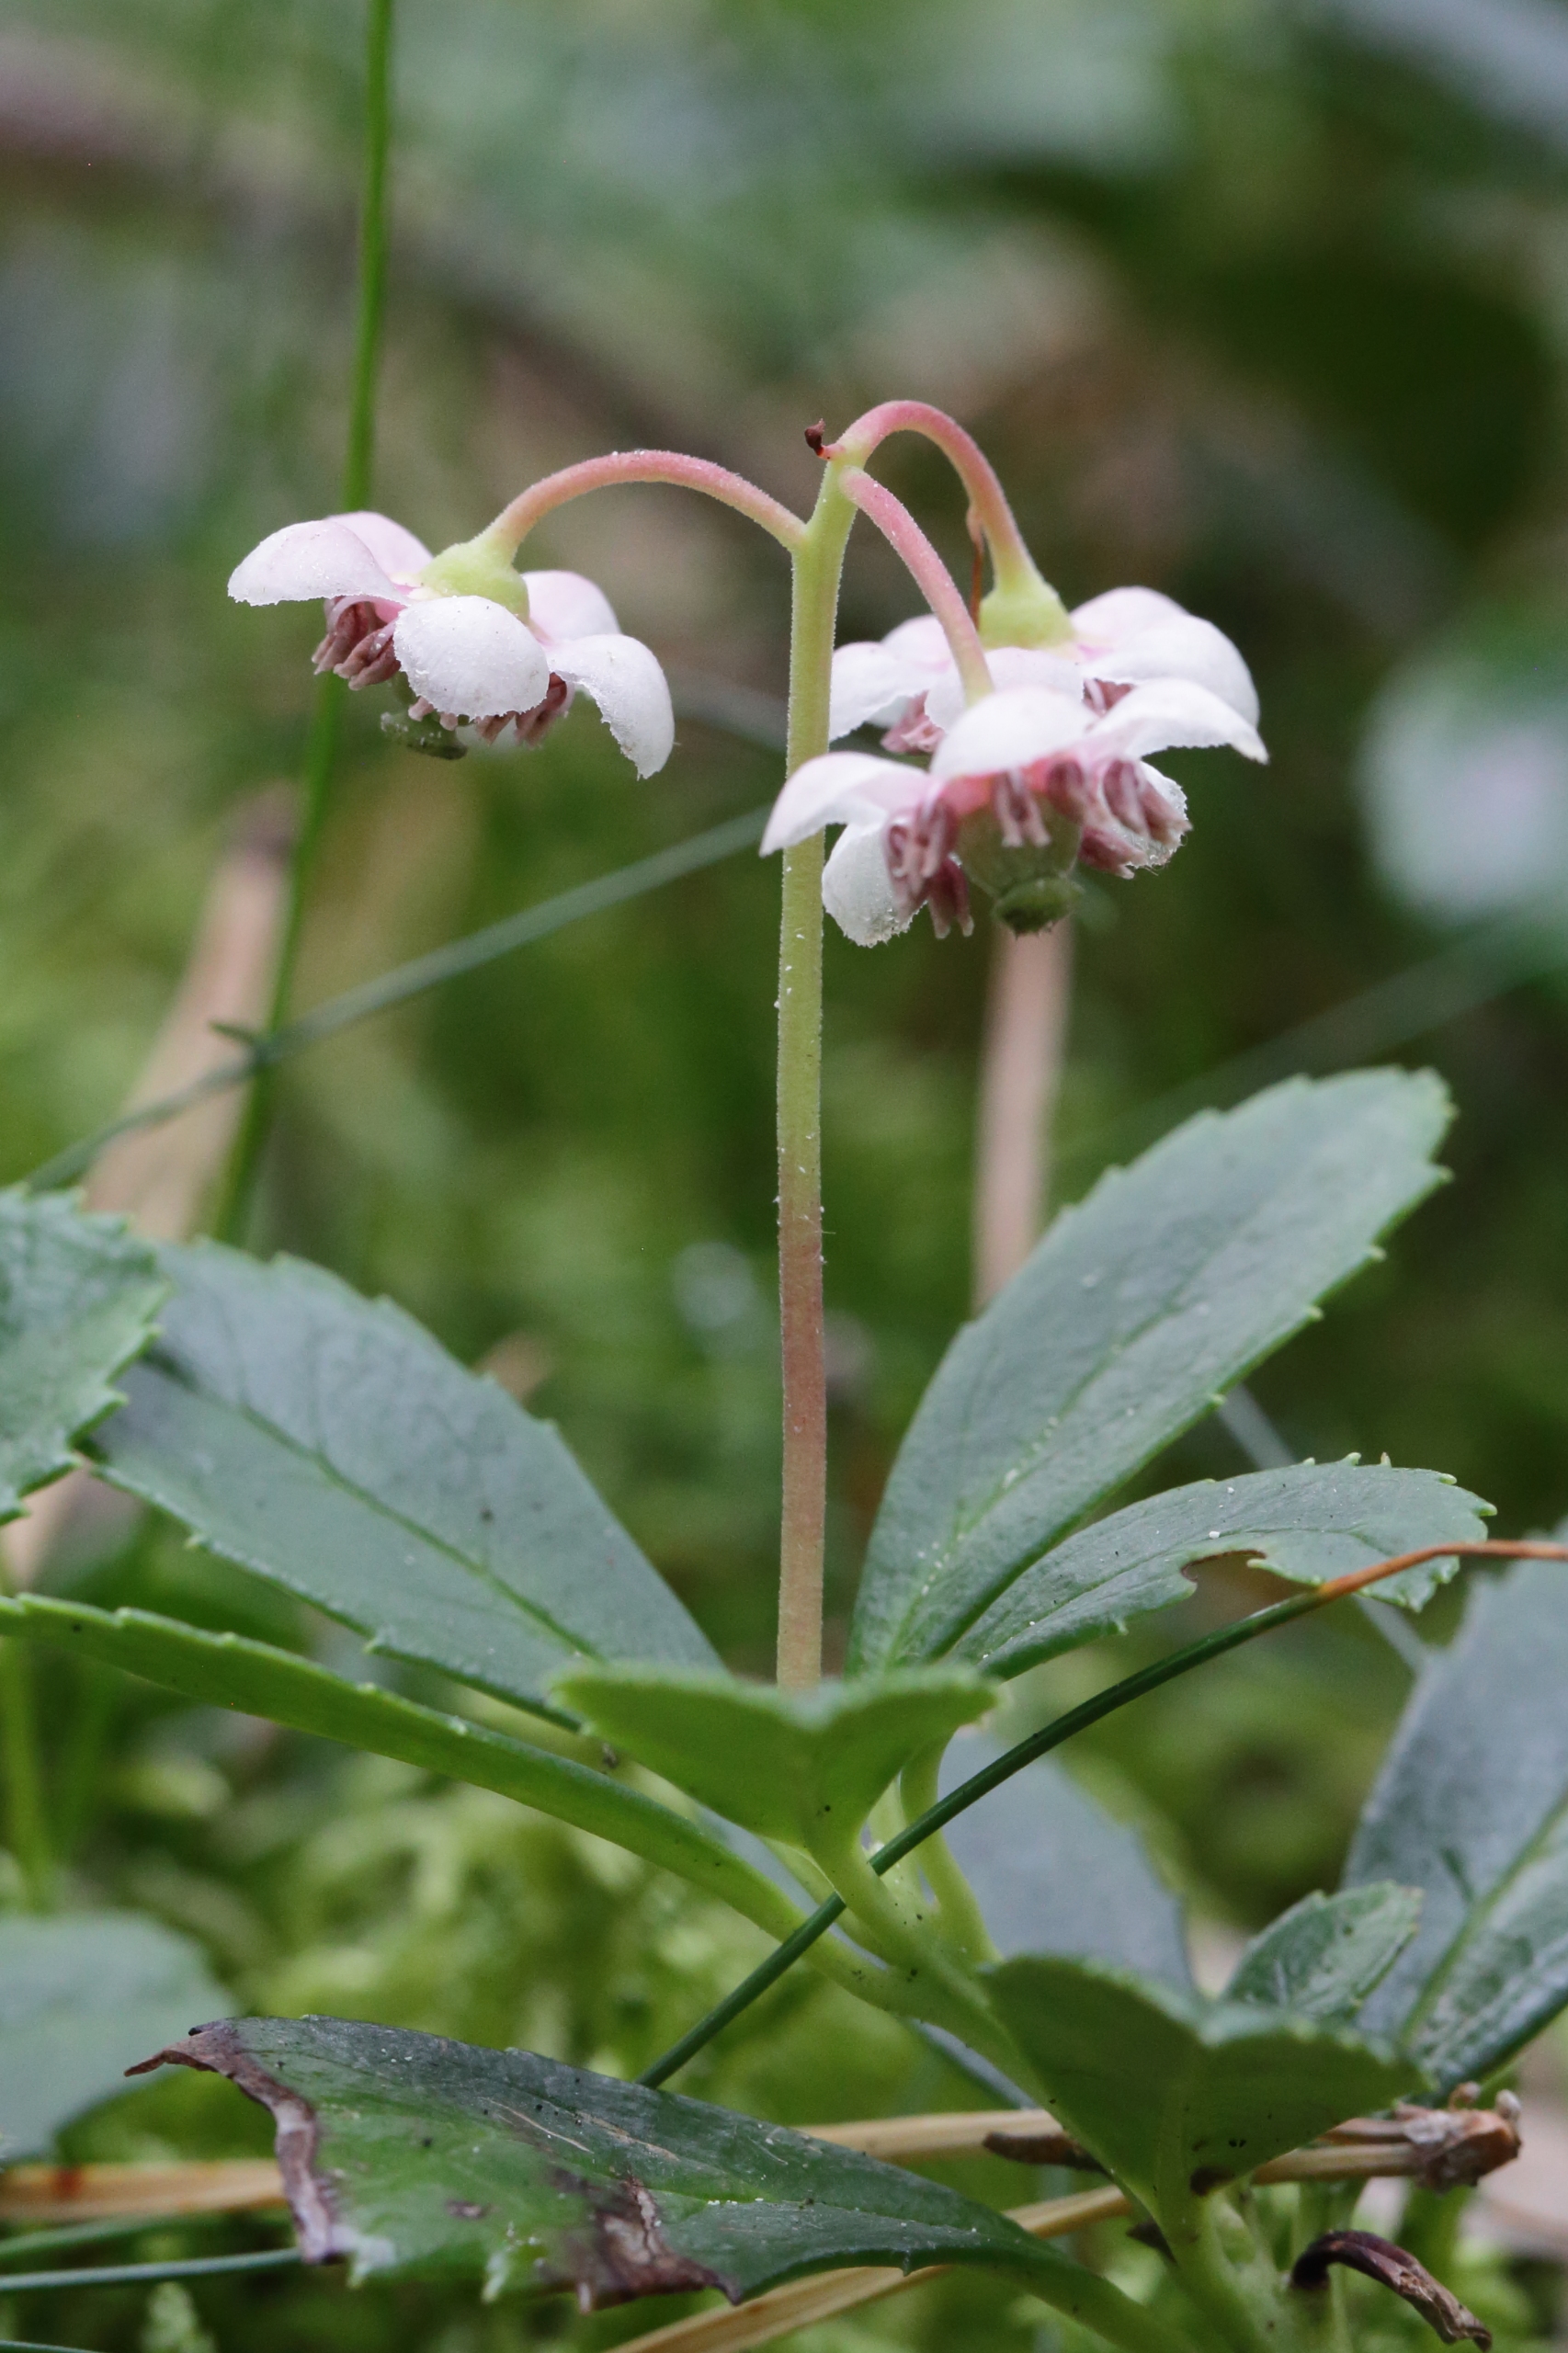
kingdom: Plantae
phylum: Tracheophyta
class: Magnoliopsida
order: Ericales
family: Ericaceae
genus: Chimaphila
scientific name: Chimaphila umbellata
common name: Skærm-vintergrøn
